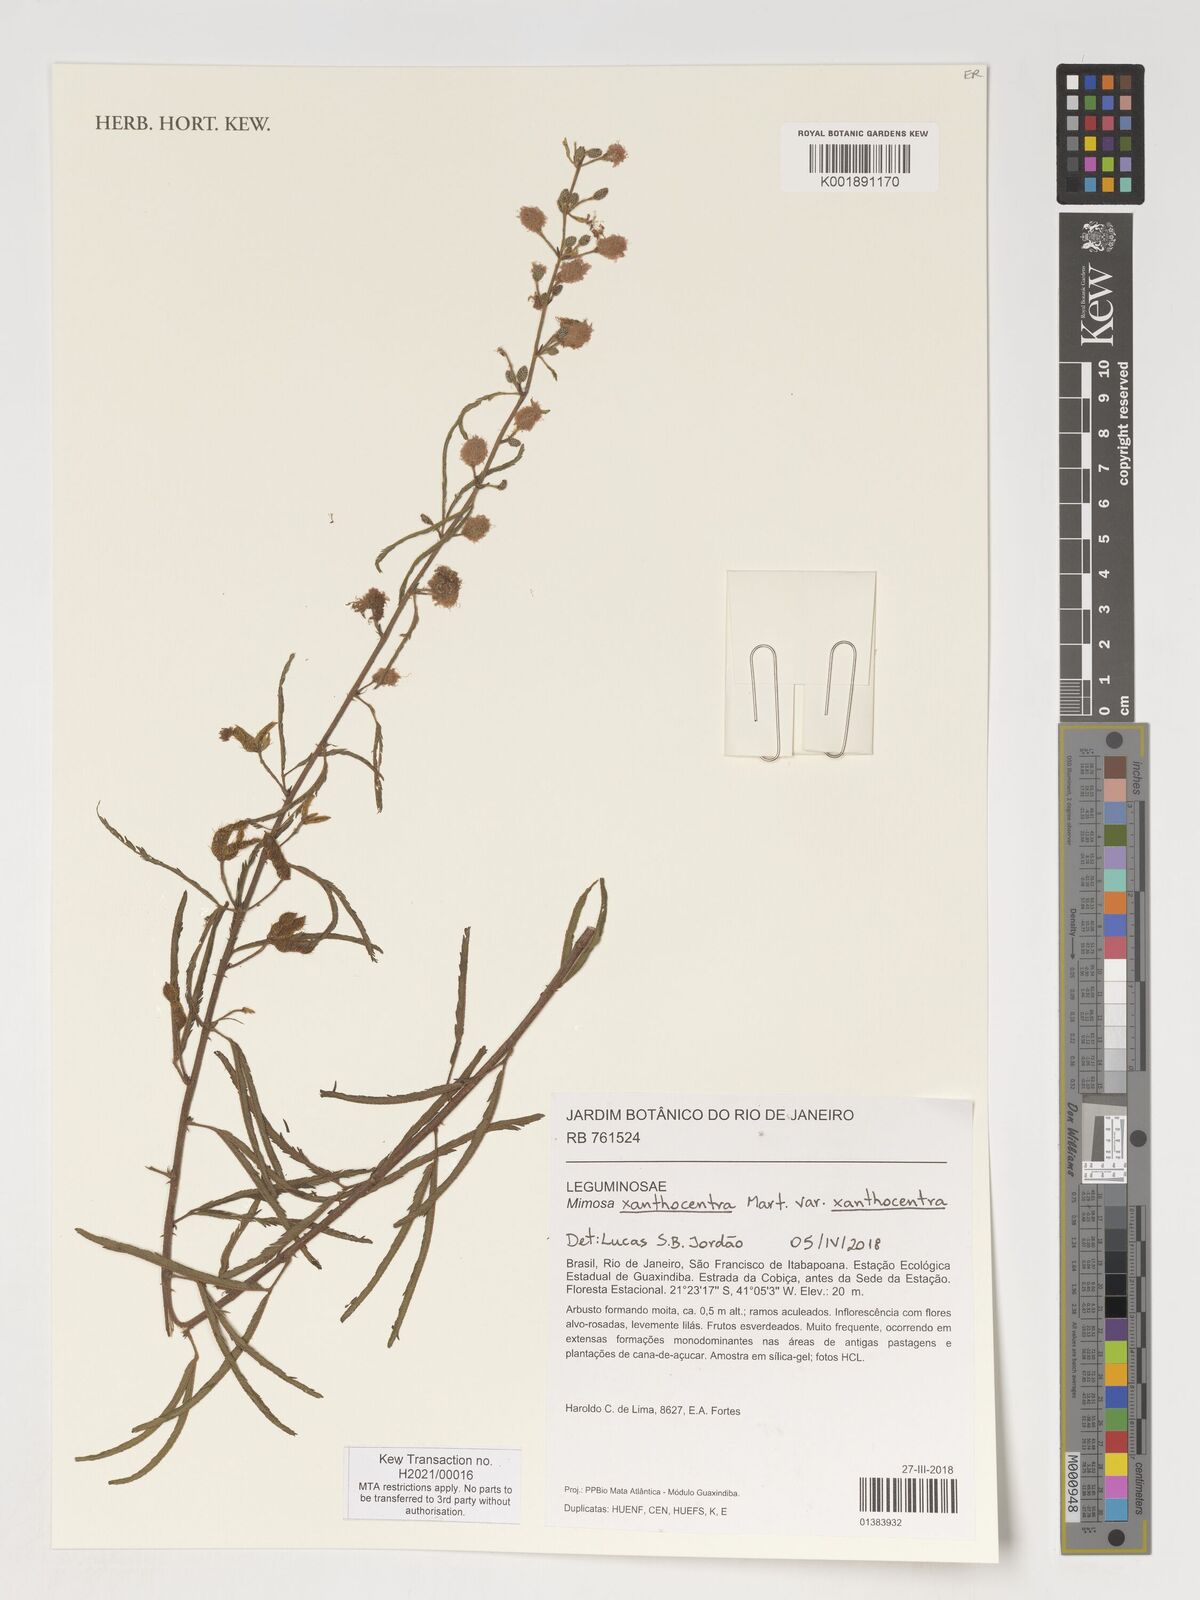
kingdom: Plantae
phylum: Tracheophyta
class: Magnoliopsida
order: Fabales
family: Fabaceae
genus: Mimosa
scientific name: Mimosa xanthocentra
